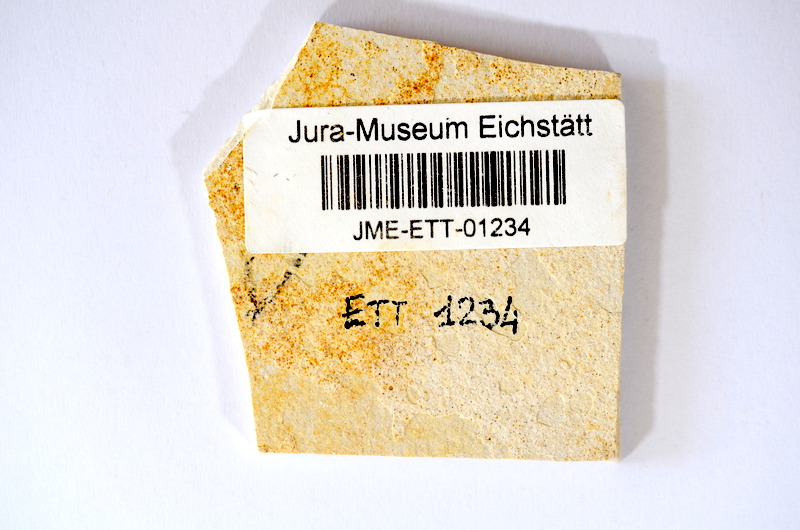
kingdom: Animalia
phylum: Chordata
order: Salmoniformes
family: Orthogonikleithridae
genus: Orthogonikleithrus
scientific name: Orthogonikleithrus hoelli
